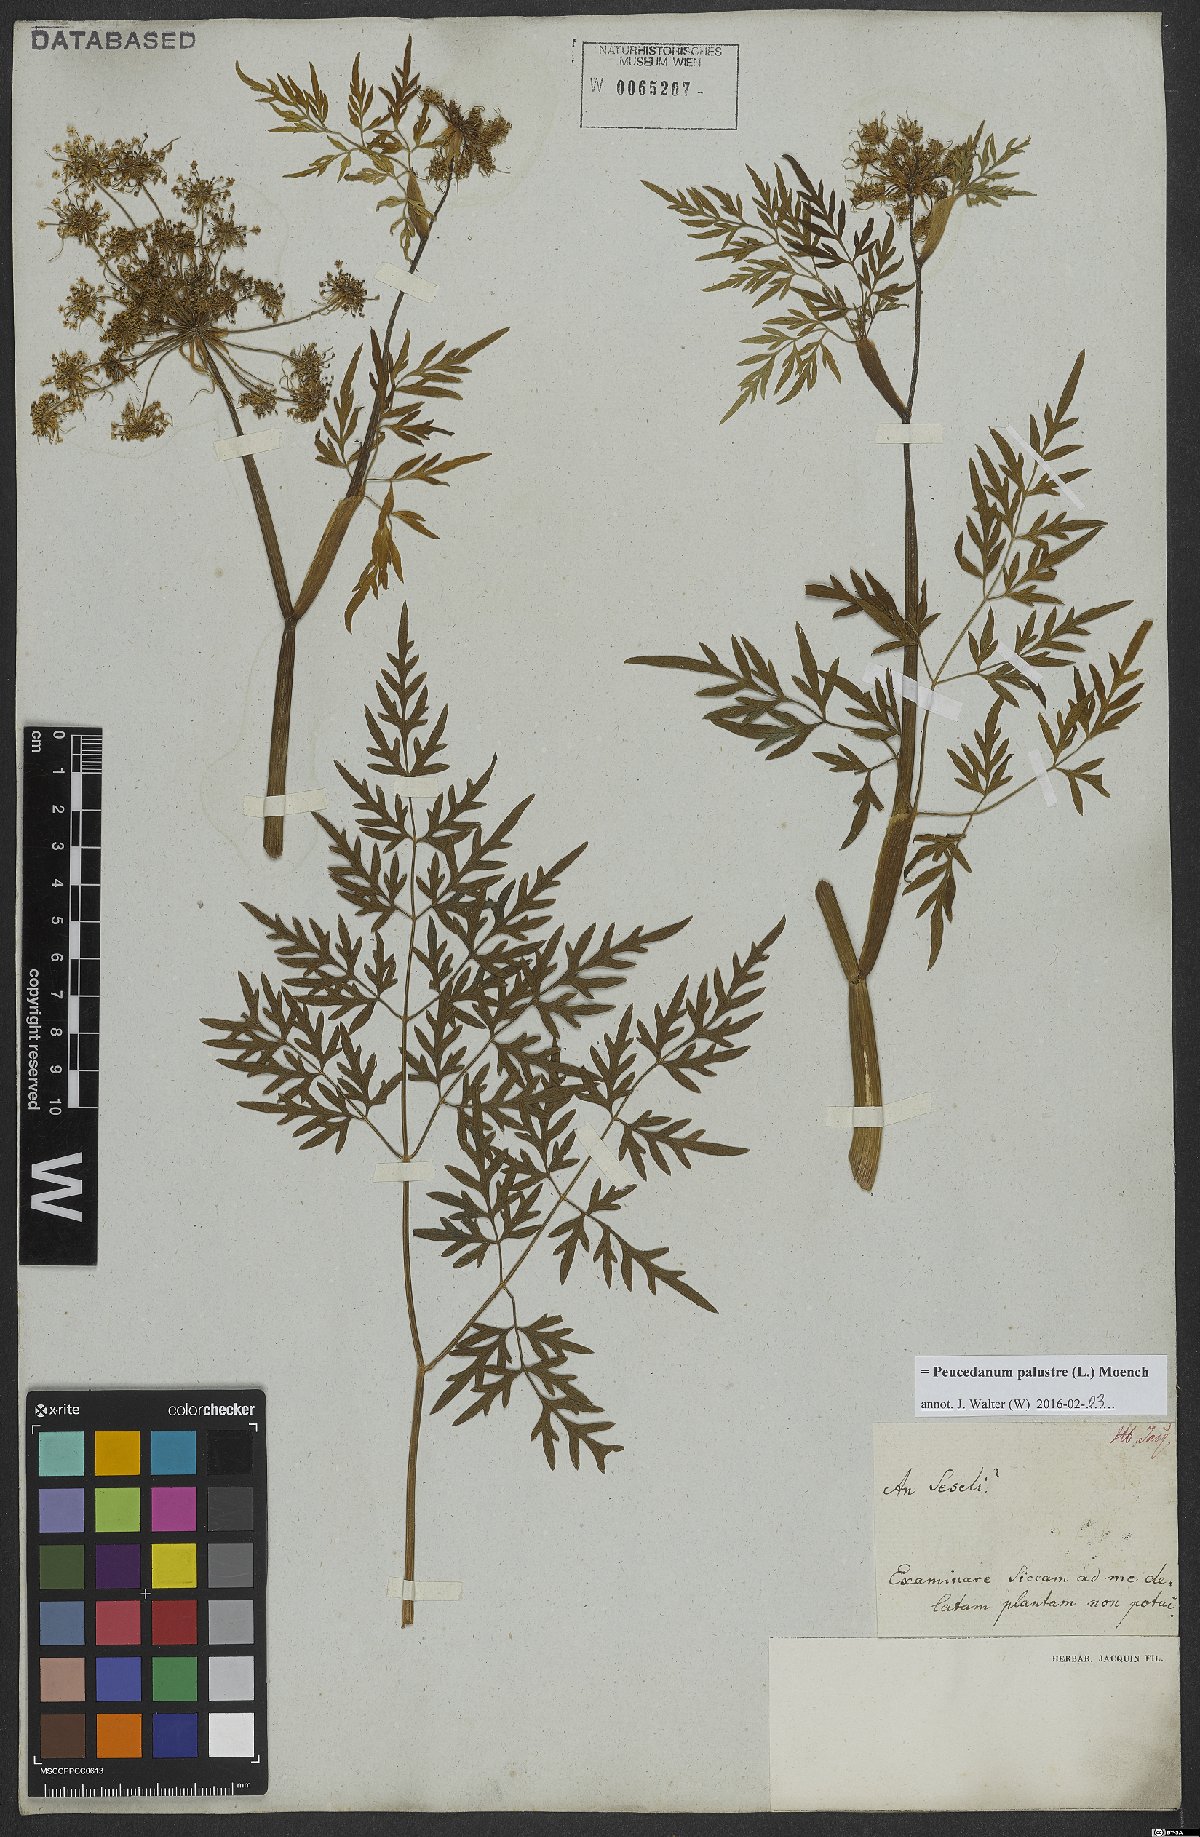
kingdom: Plantae
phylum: Tracheophyta
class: Magnoliopsida
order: Apiales
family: Apiaceae
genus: Thysselinum
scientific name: Thysselinum palustre
